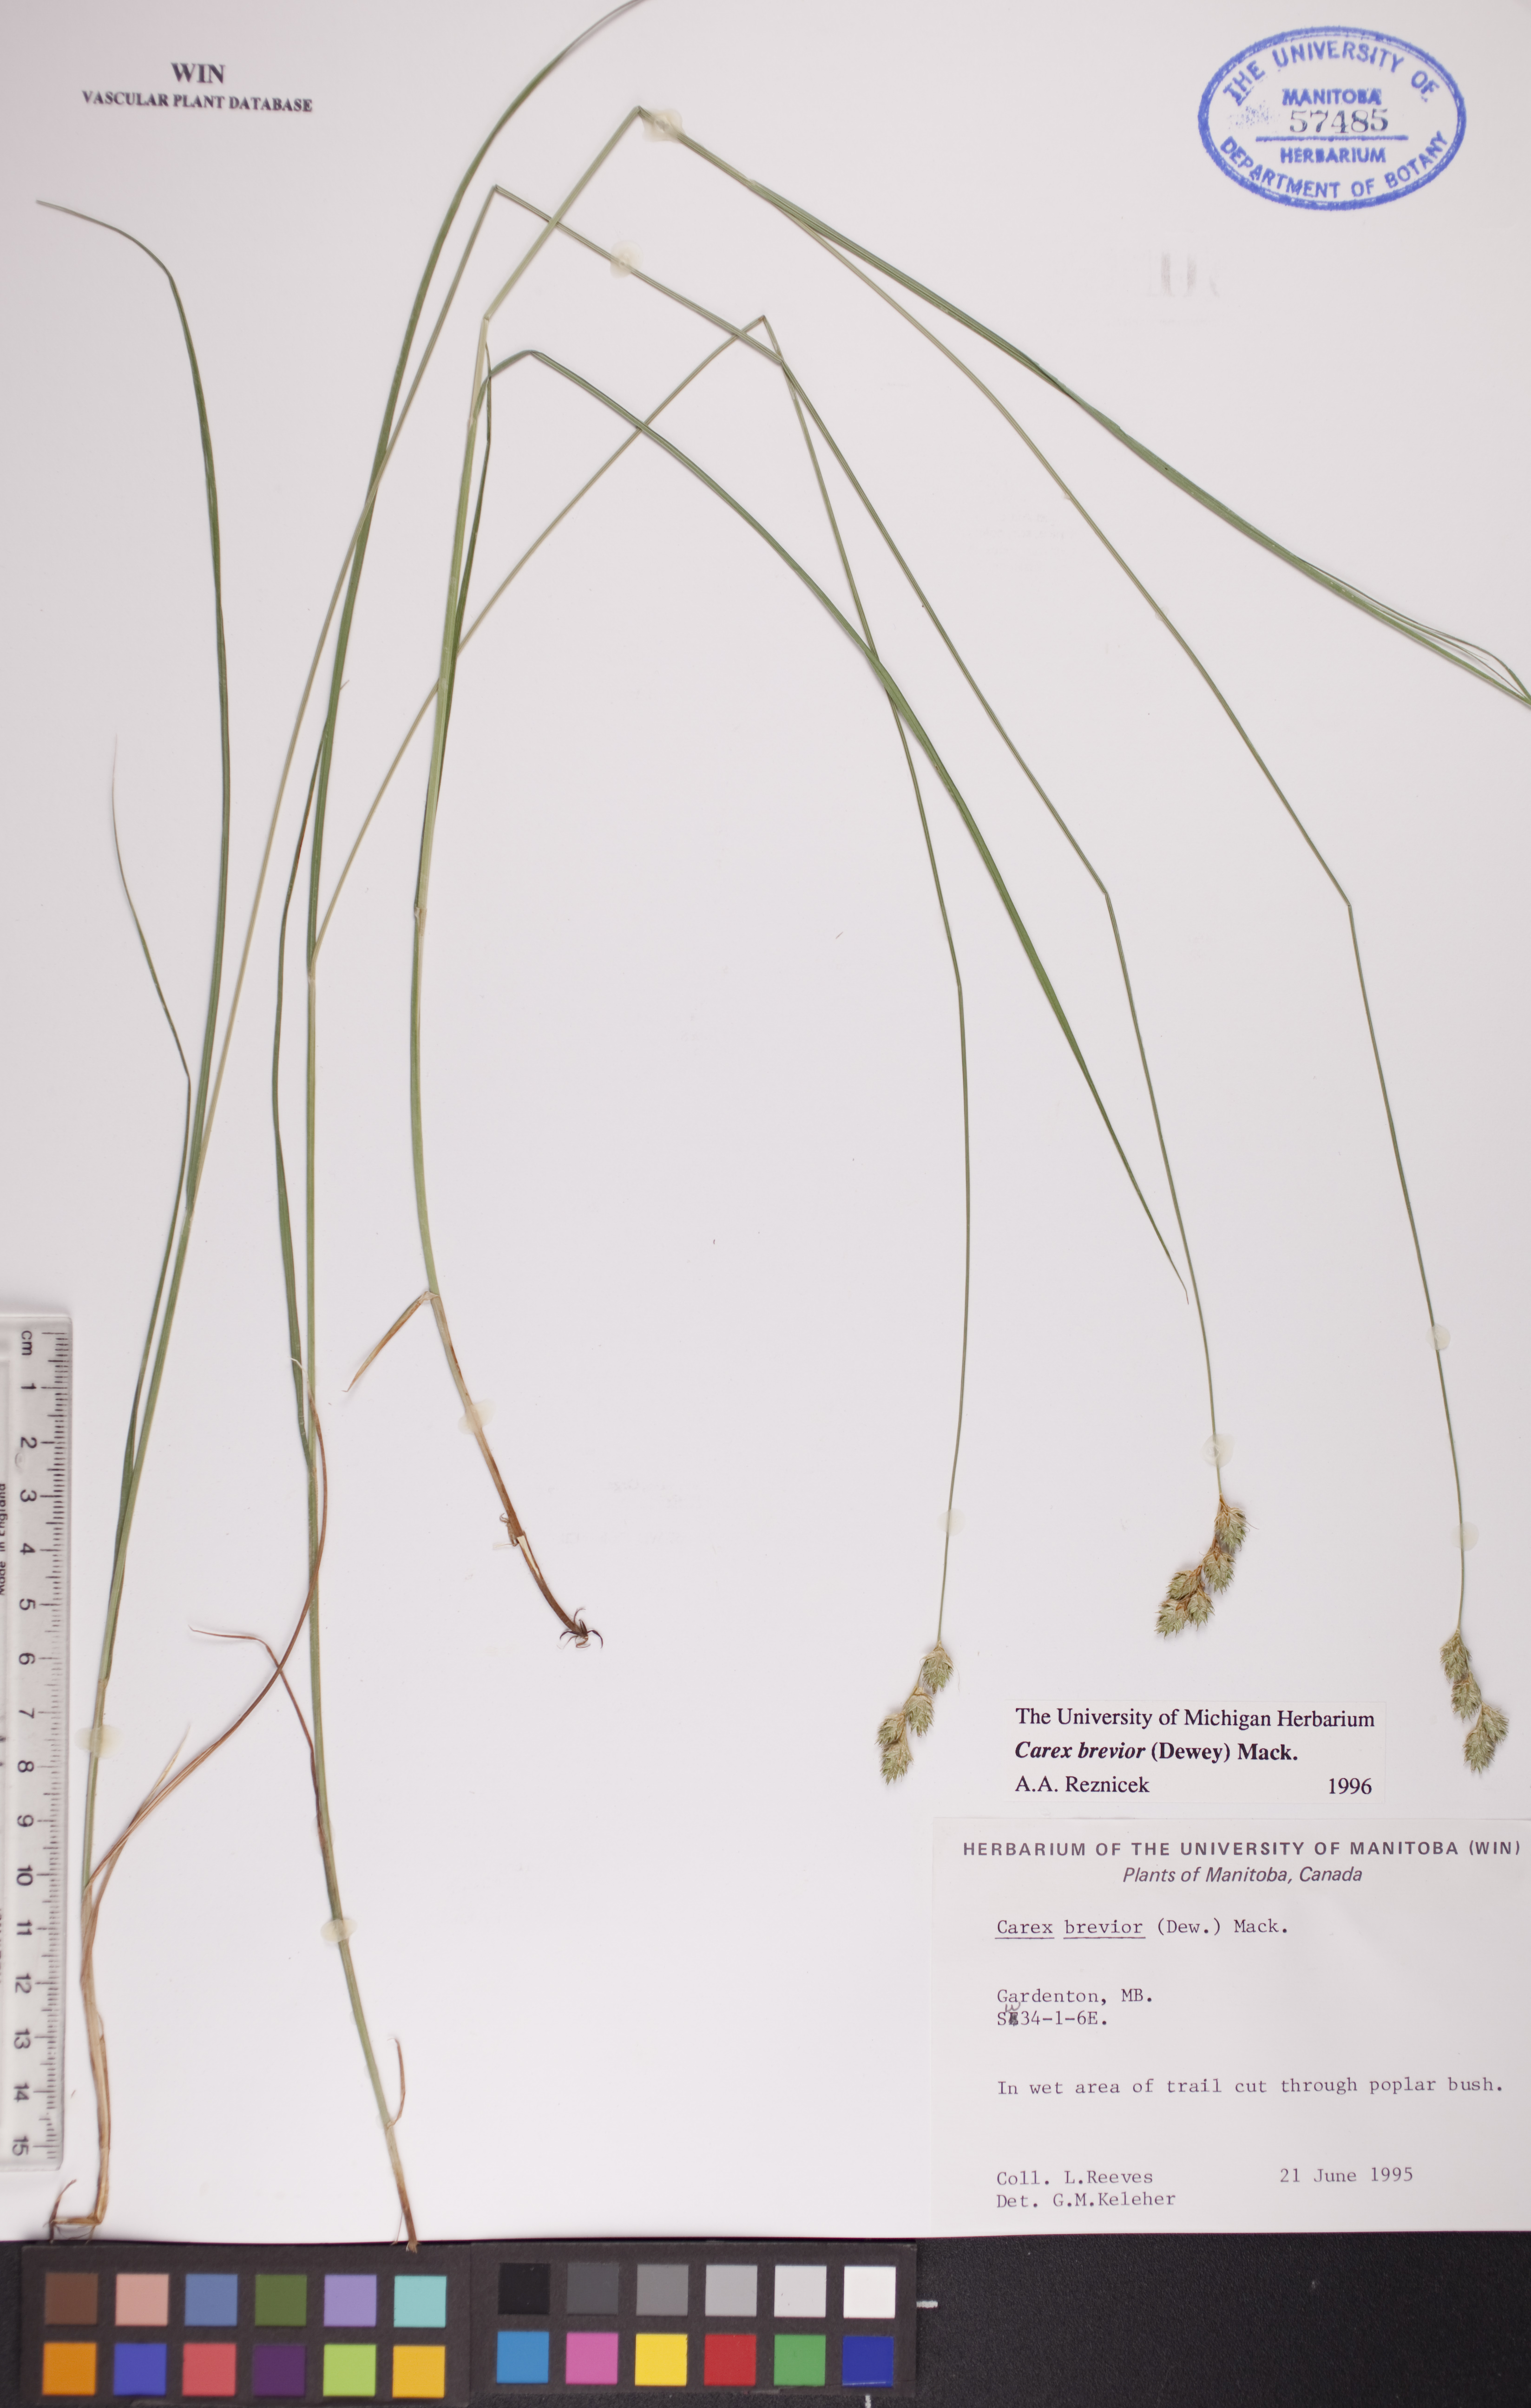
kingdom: Plantae
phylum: Tracheophyta
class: Liliopsida
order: Poales
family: Cyperaceae
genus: Carex
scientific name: Carex brevior
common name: Brevior sedge
